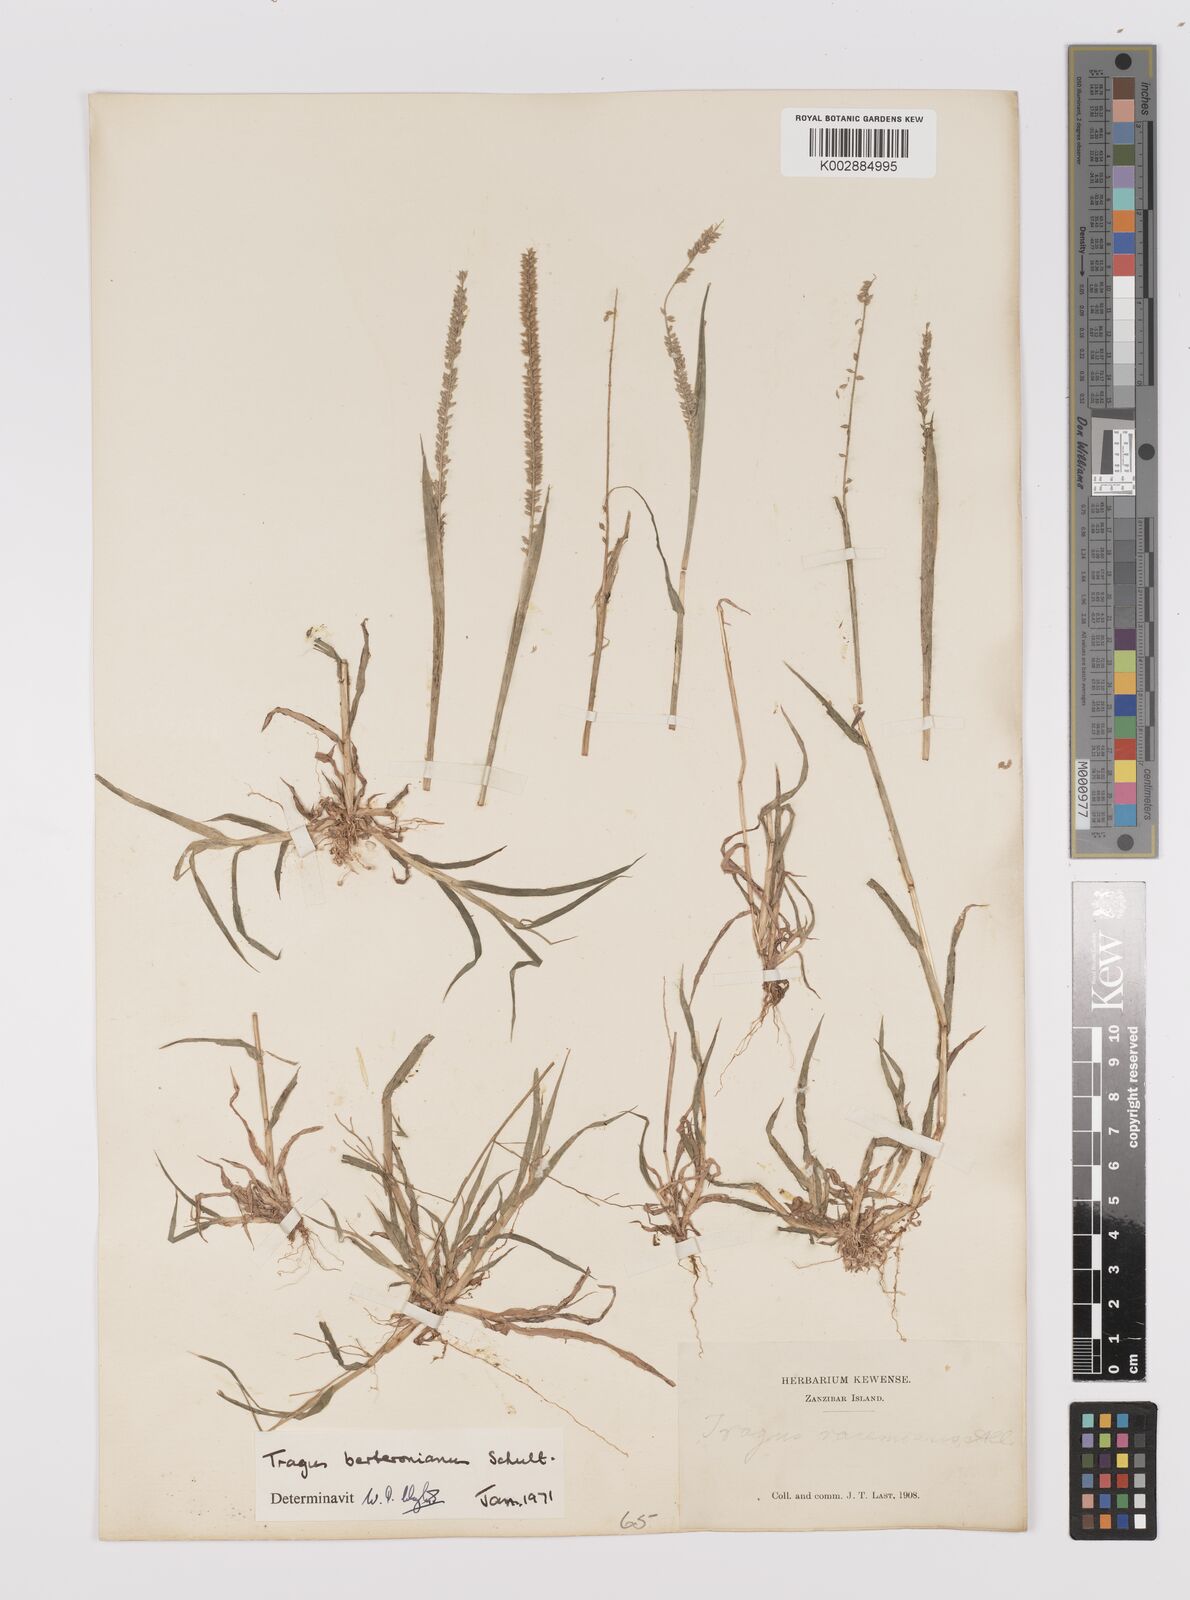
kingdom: Plantae
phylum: Tracheophyta
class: Liliopsida
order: Poales
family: Poaceae
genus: Tragus
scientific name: Tragus berteronianus
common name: African bur-grass
